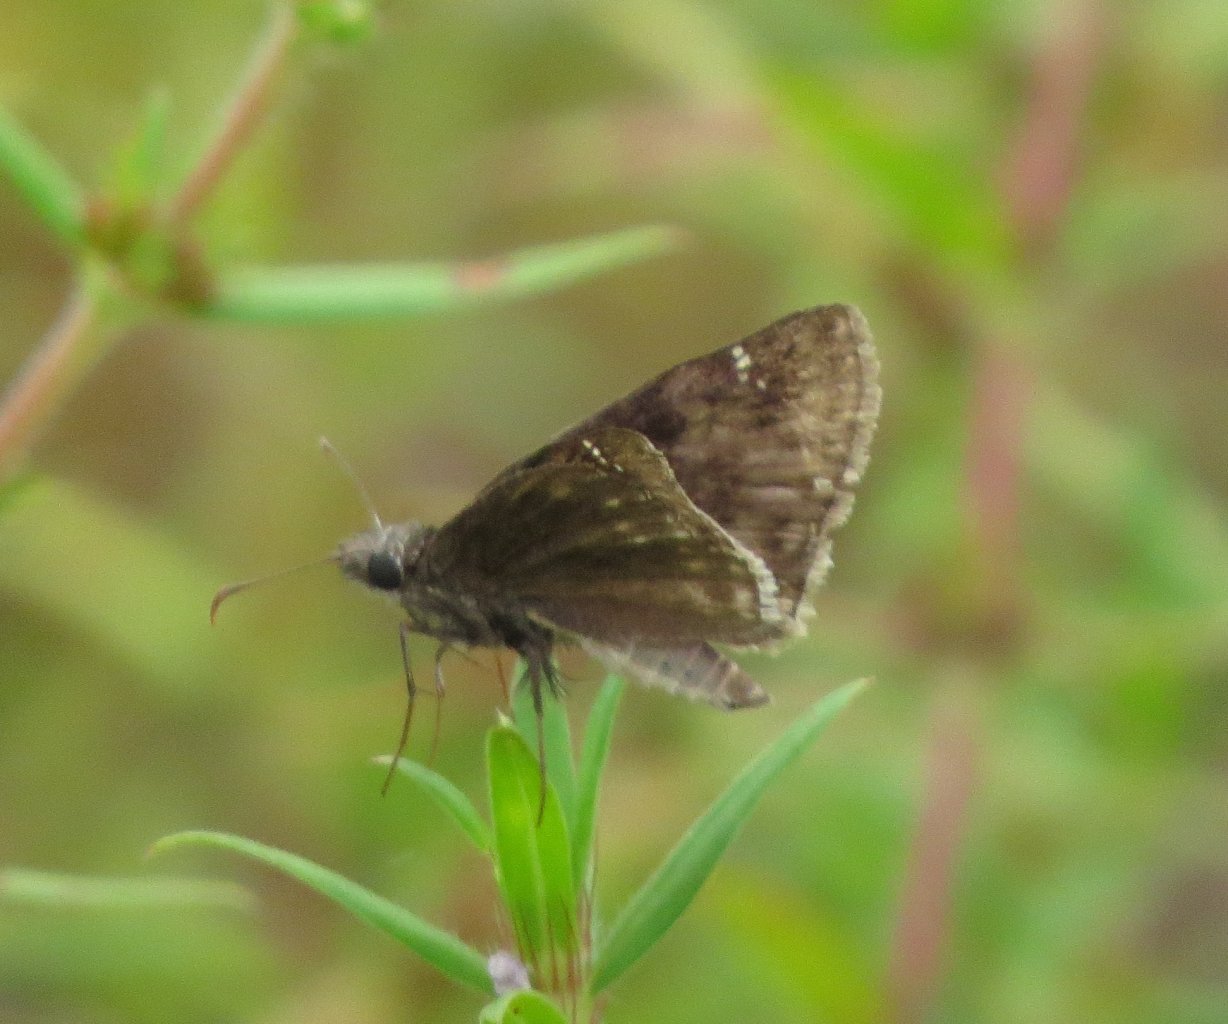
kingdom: Animalia
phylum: Arthropoda
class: Insecta
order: Lepidoptera
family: Hesperiidae
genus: Erynnis
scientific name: Erynnis zarucco
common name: Zarucco Duskywing
